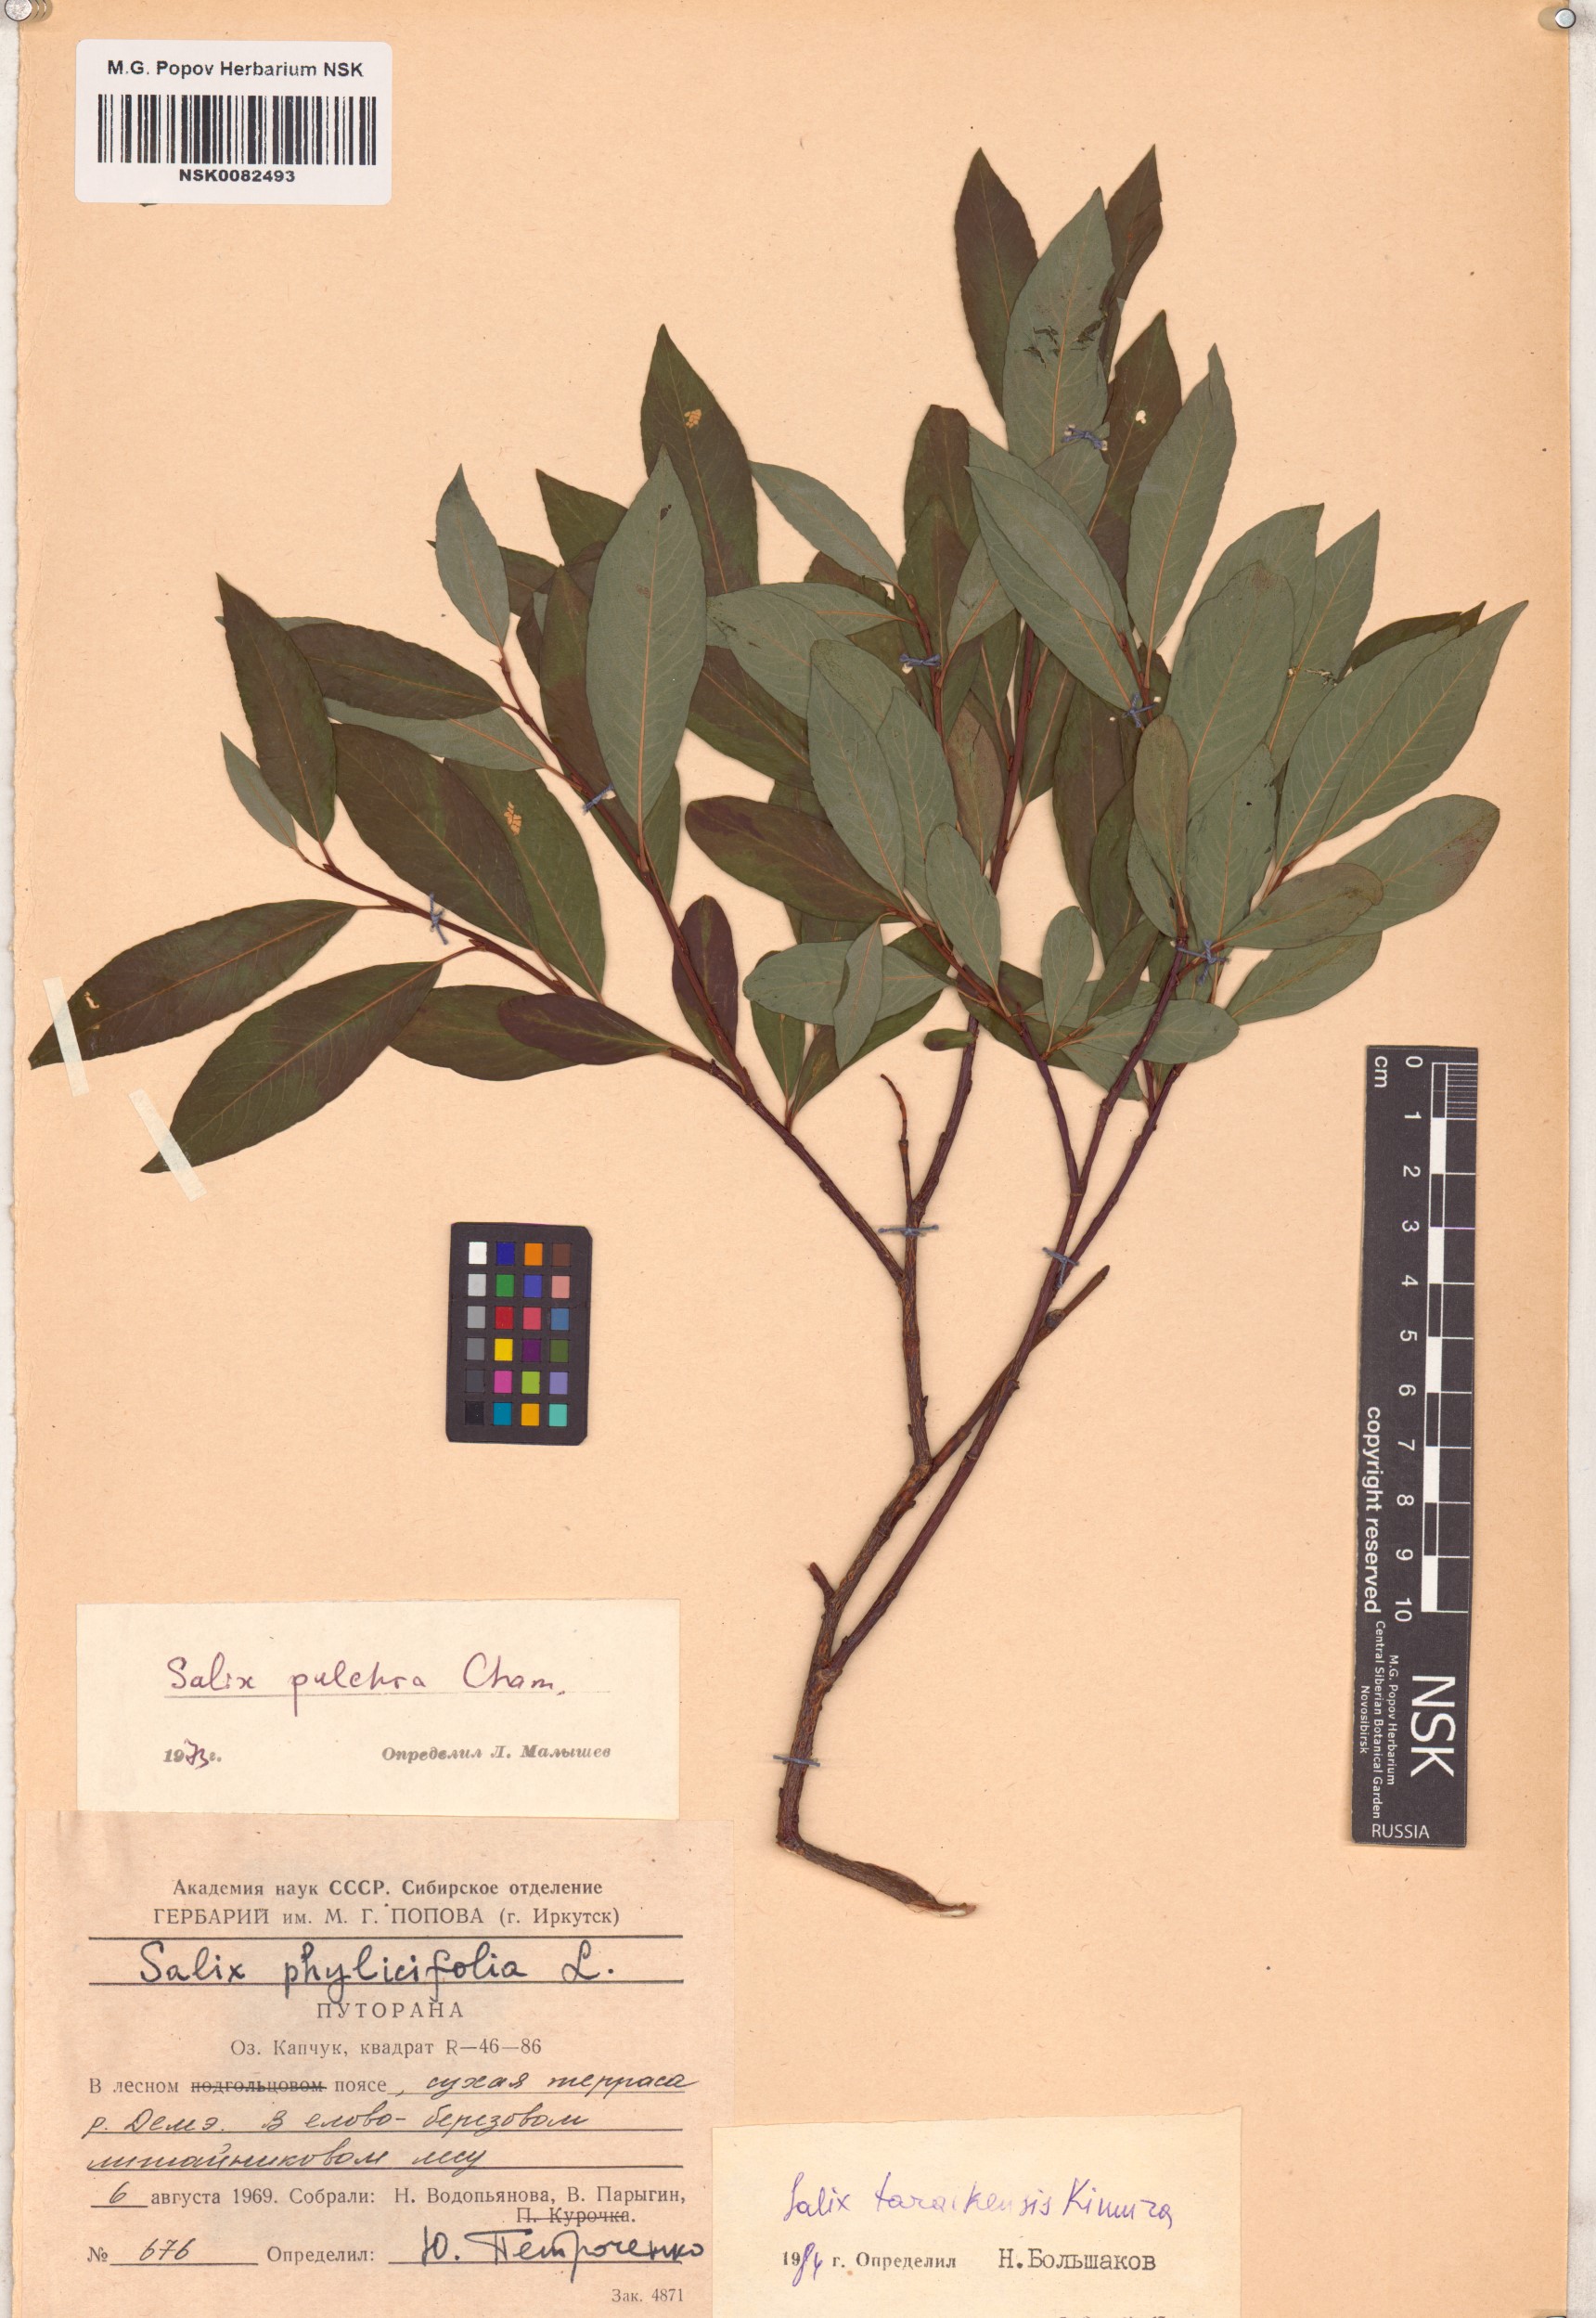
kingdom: Plantae
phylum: Tracheophyta
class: Magnoliopsida
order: Malpighiales
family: Salicaceae
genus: Salix
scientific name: Salix taraikensis
